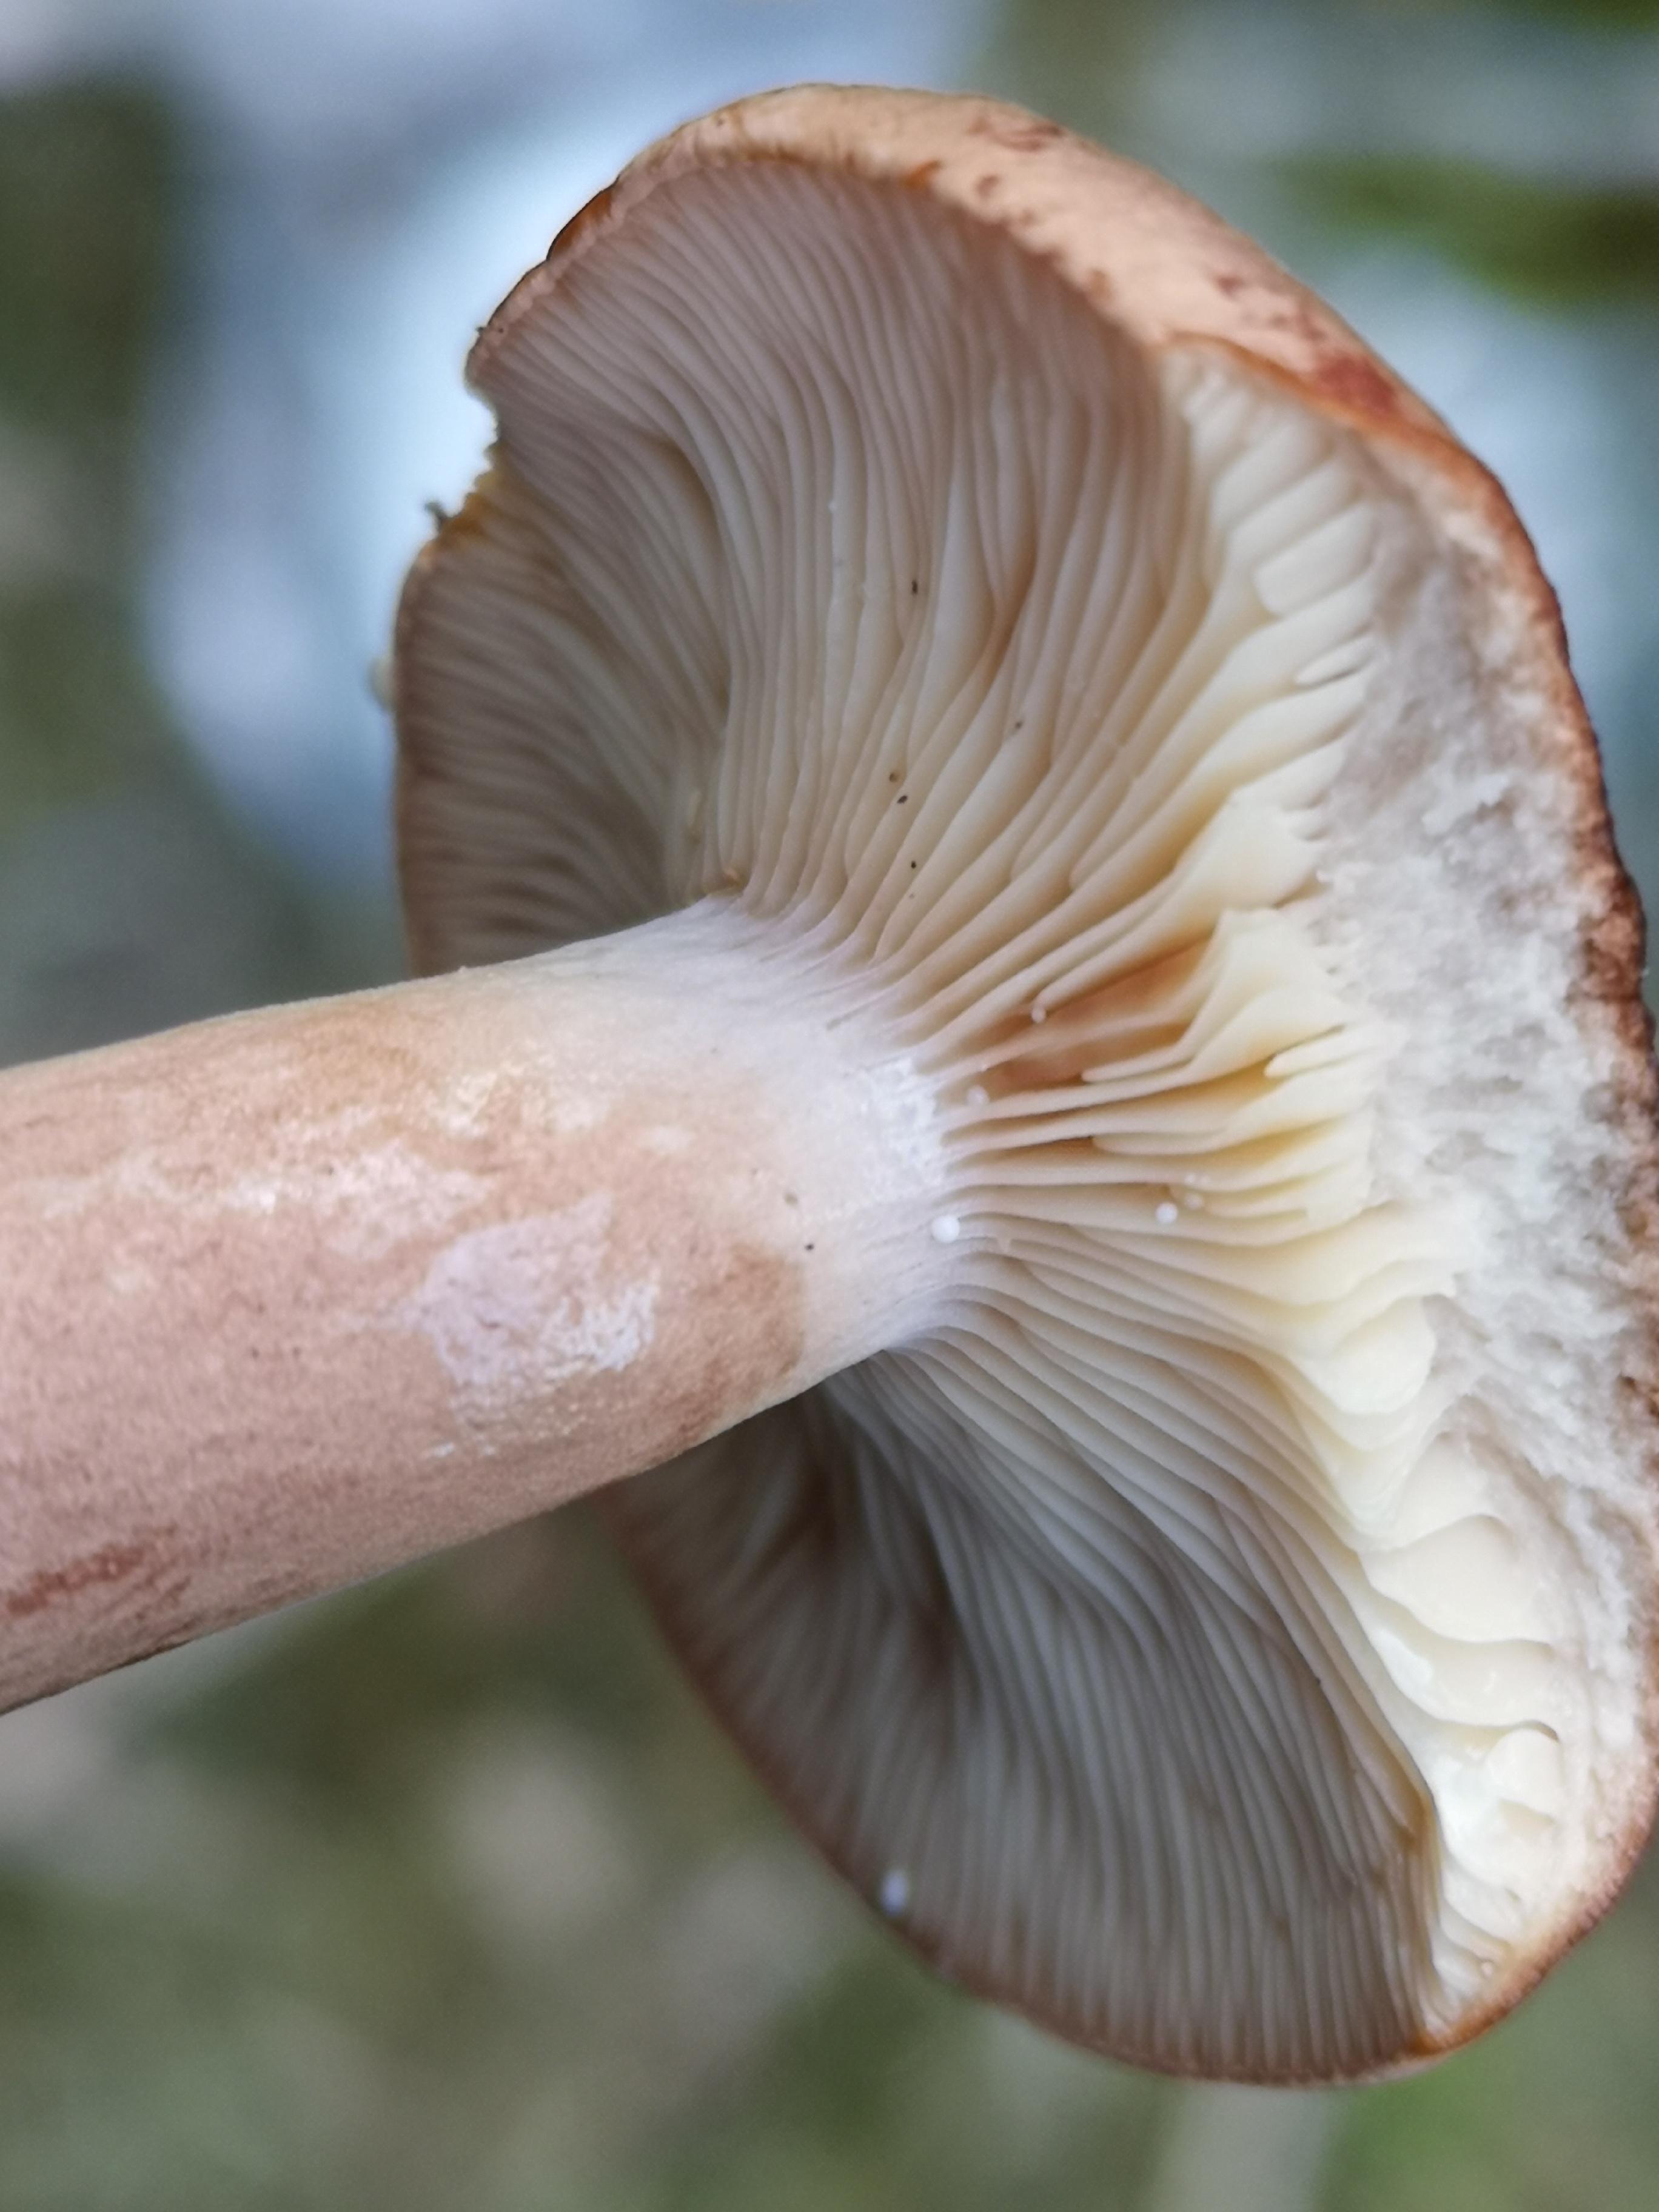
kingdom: Fungi
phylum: Basidiomycota
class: Agaricomycetes
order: Russulales
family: Russulaceae
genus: Lactarius
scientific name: Lactarius rufus
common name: rødbrun mælkehat
